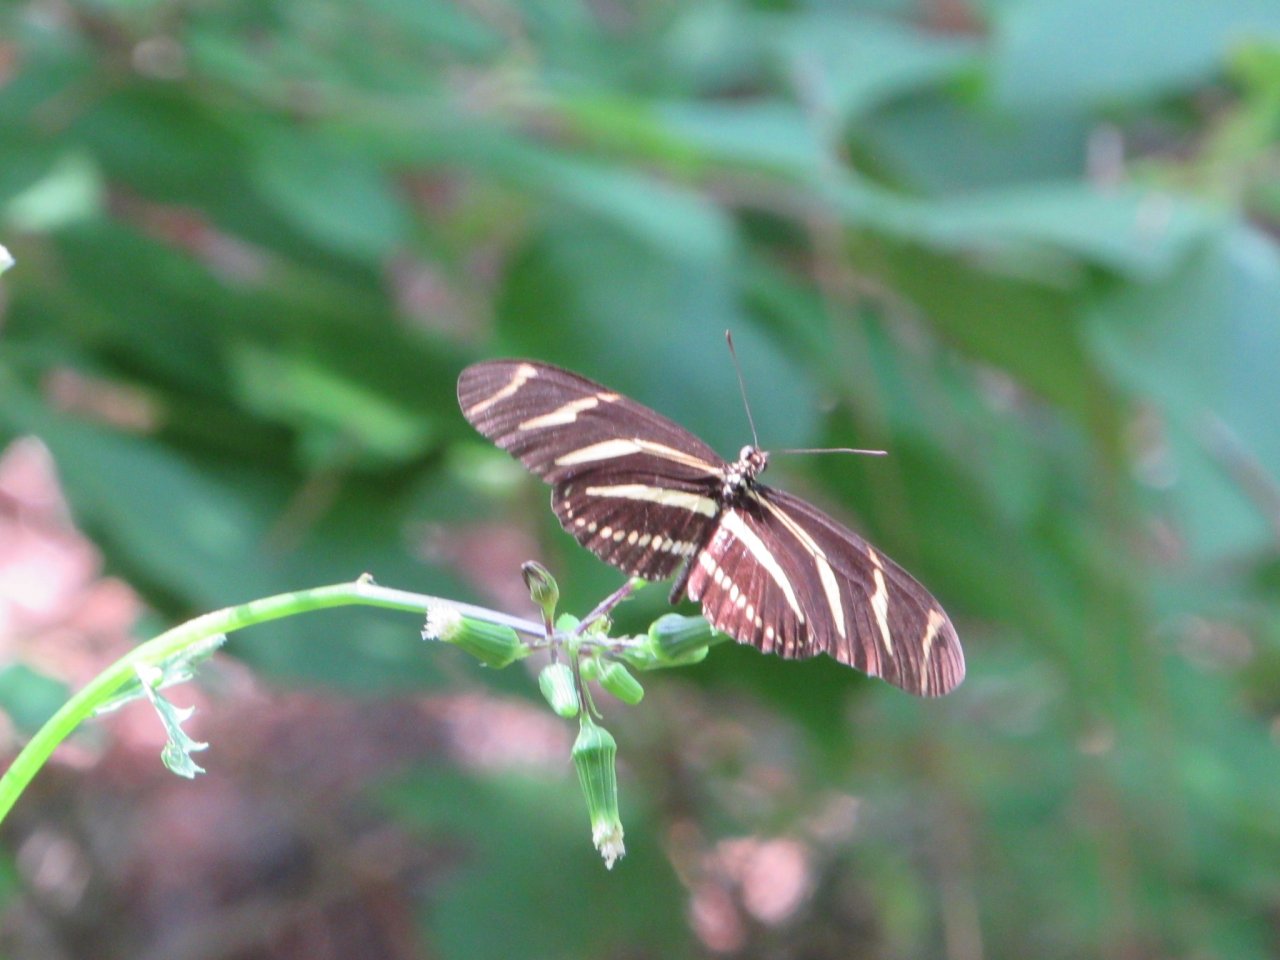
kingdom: Animalia
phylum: Arthropoda
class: Insecta
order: Lepidoptera
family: Nymphalidae
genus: Heliconius
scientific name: Heliconius charithonia
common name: Zebra Longwing
